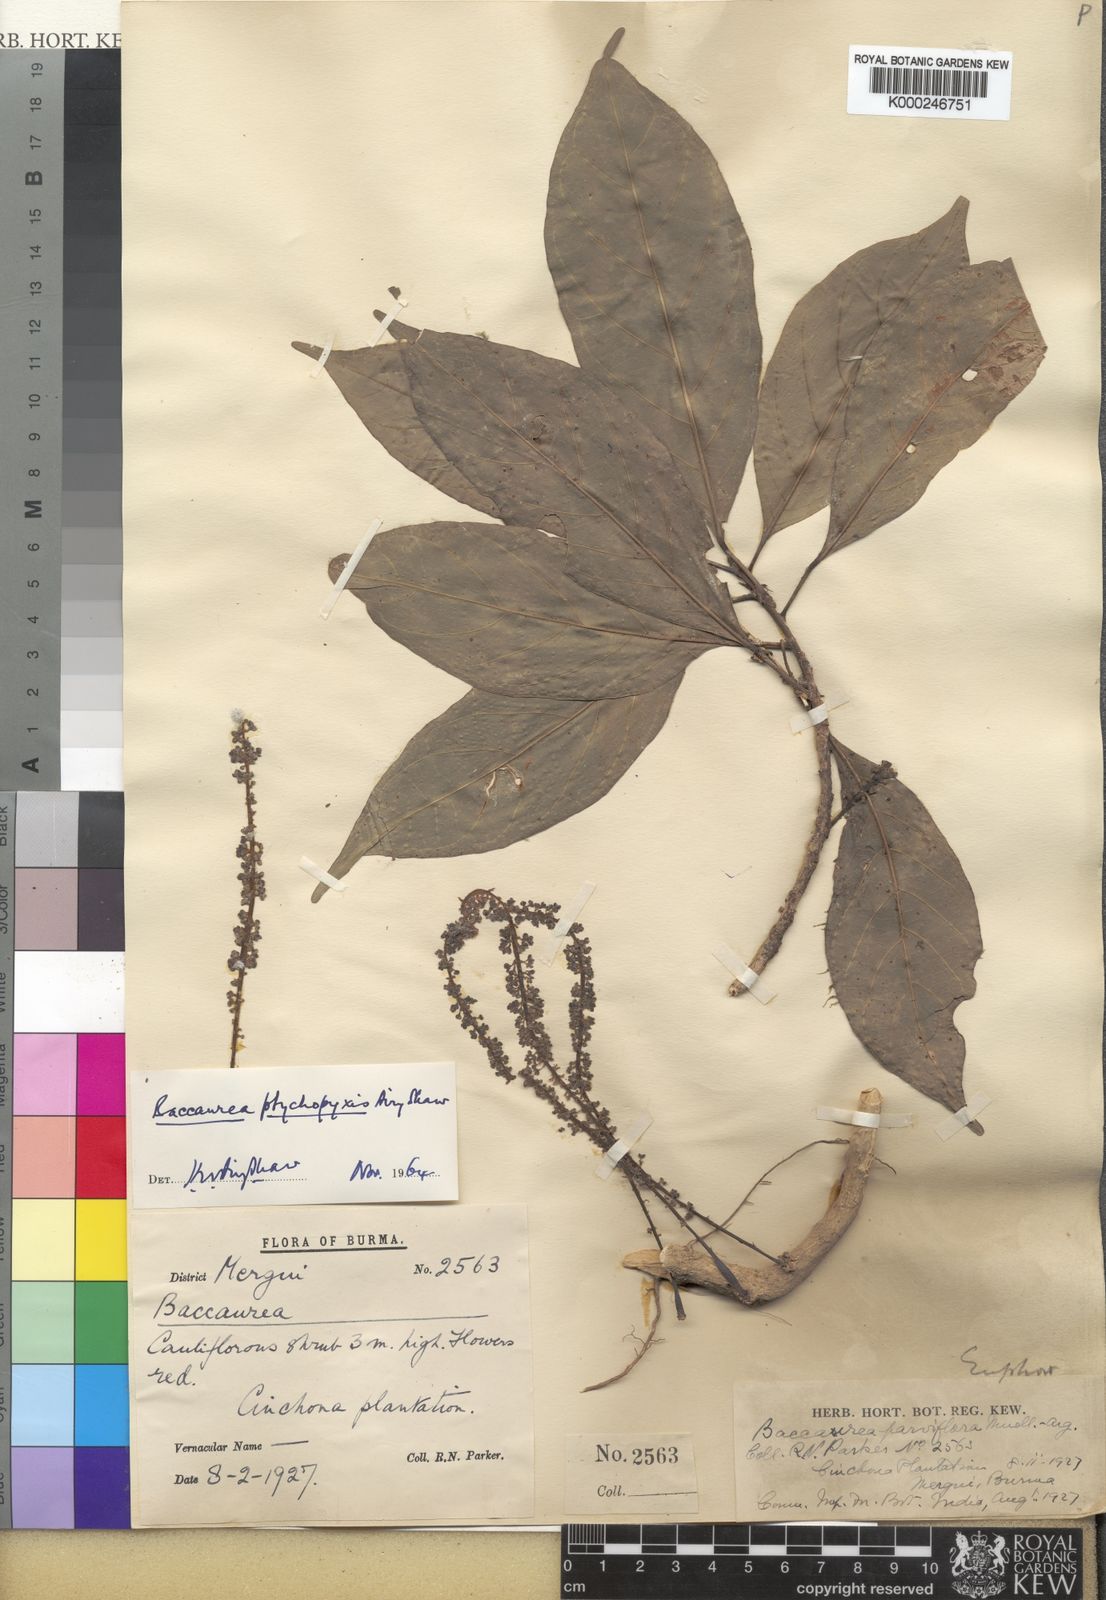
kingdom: Plantae
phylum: Tracheophyta
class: Magnoliopsida
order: Malpighiales
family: Phyllanthaceae
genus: Baccaurea
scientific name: Baccaurea ptychopyxis
